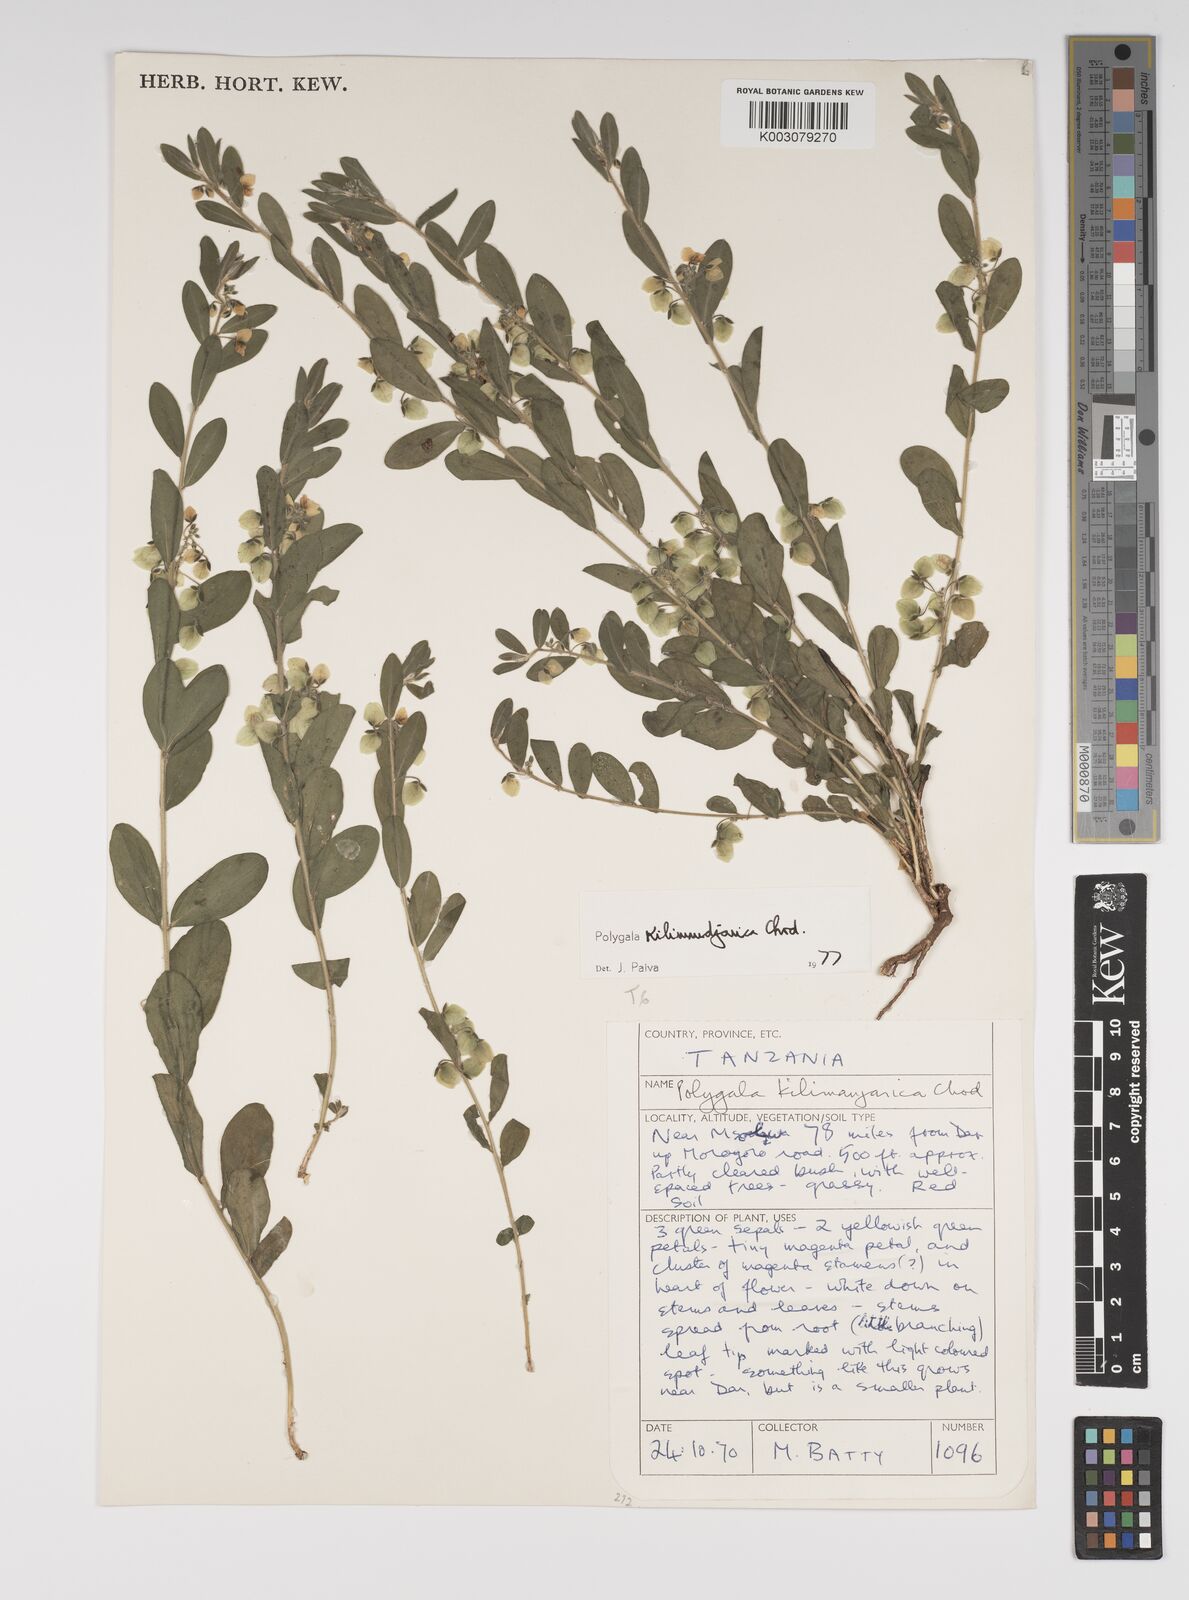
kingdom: Plantae
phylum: Tracheophyta
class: Magnoliopsida
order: Fabales
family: Polygalaceae
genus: Polygala
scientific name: Polygala kilimandjarica
